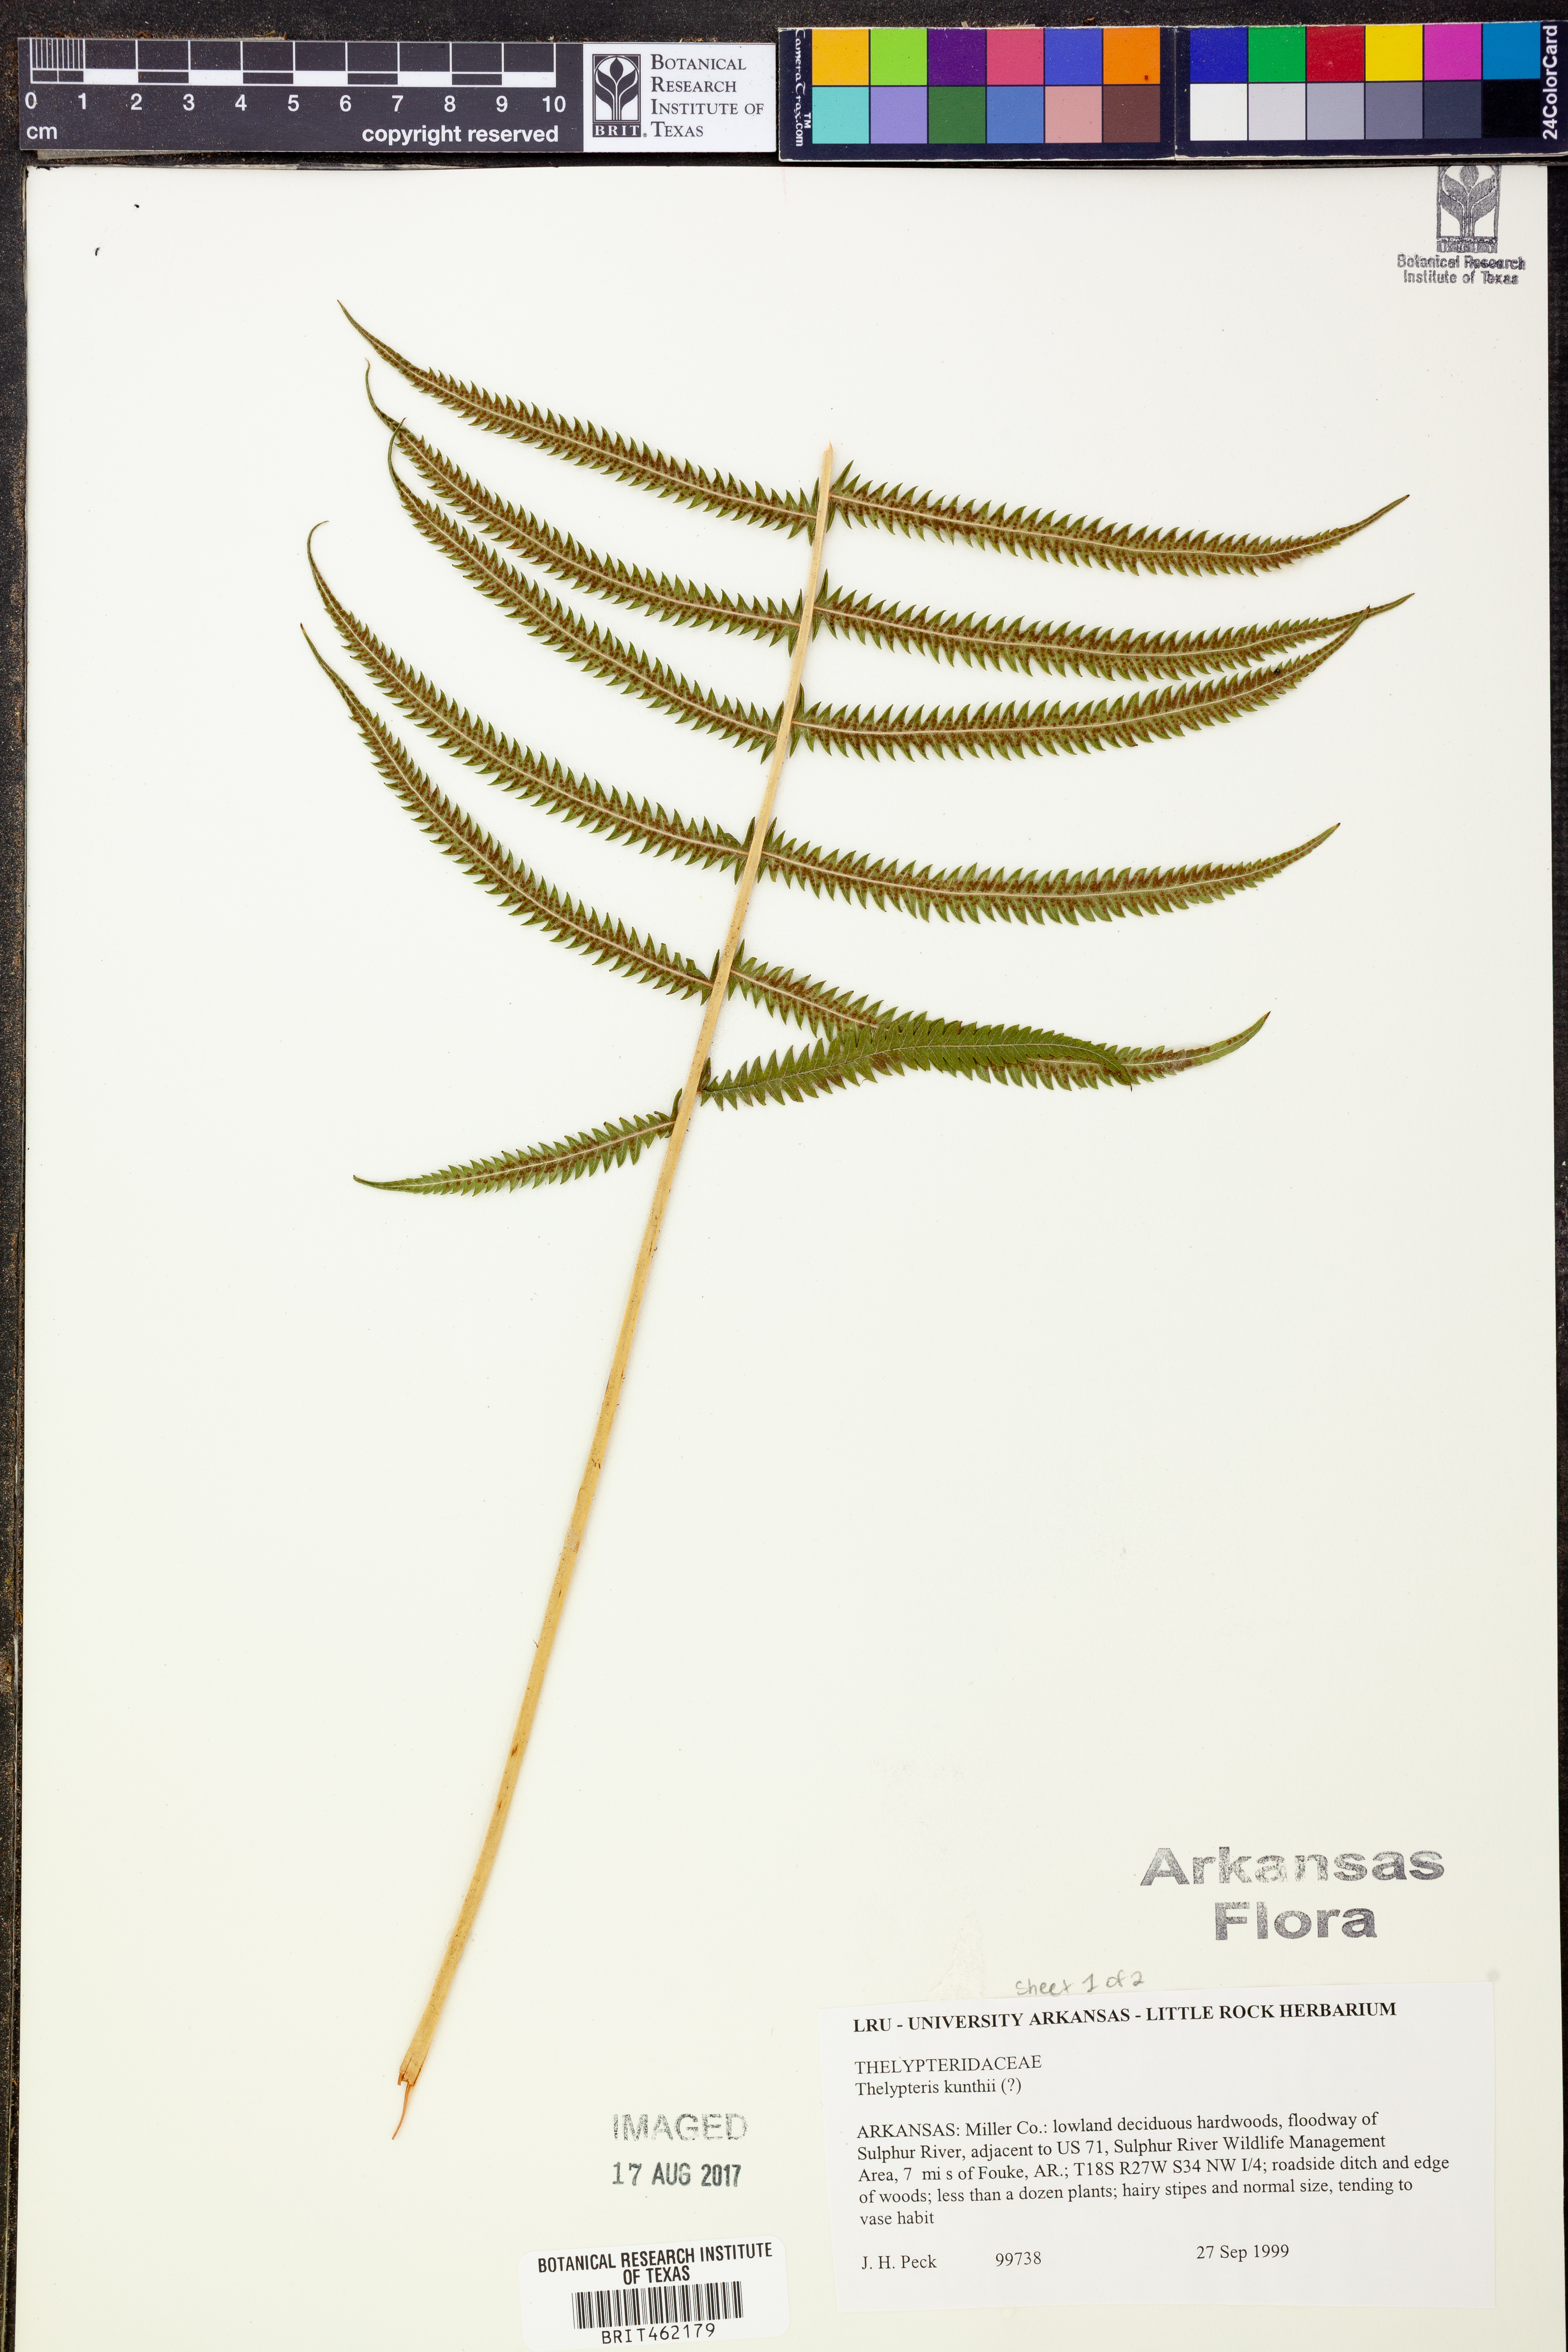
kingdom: Plantae
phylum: Tracheophyta
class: Polypodiopsida
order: Polypodiales
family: Thelypteridaceae
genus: Pelazoneuron
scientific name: Pelazoneuron kunthii
